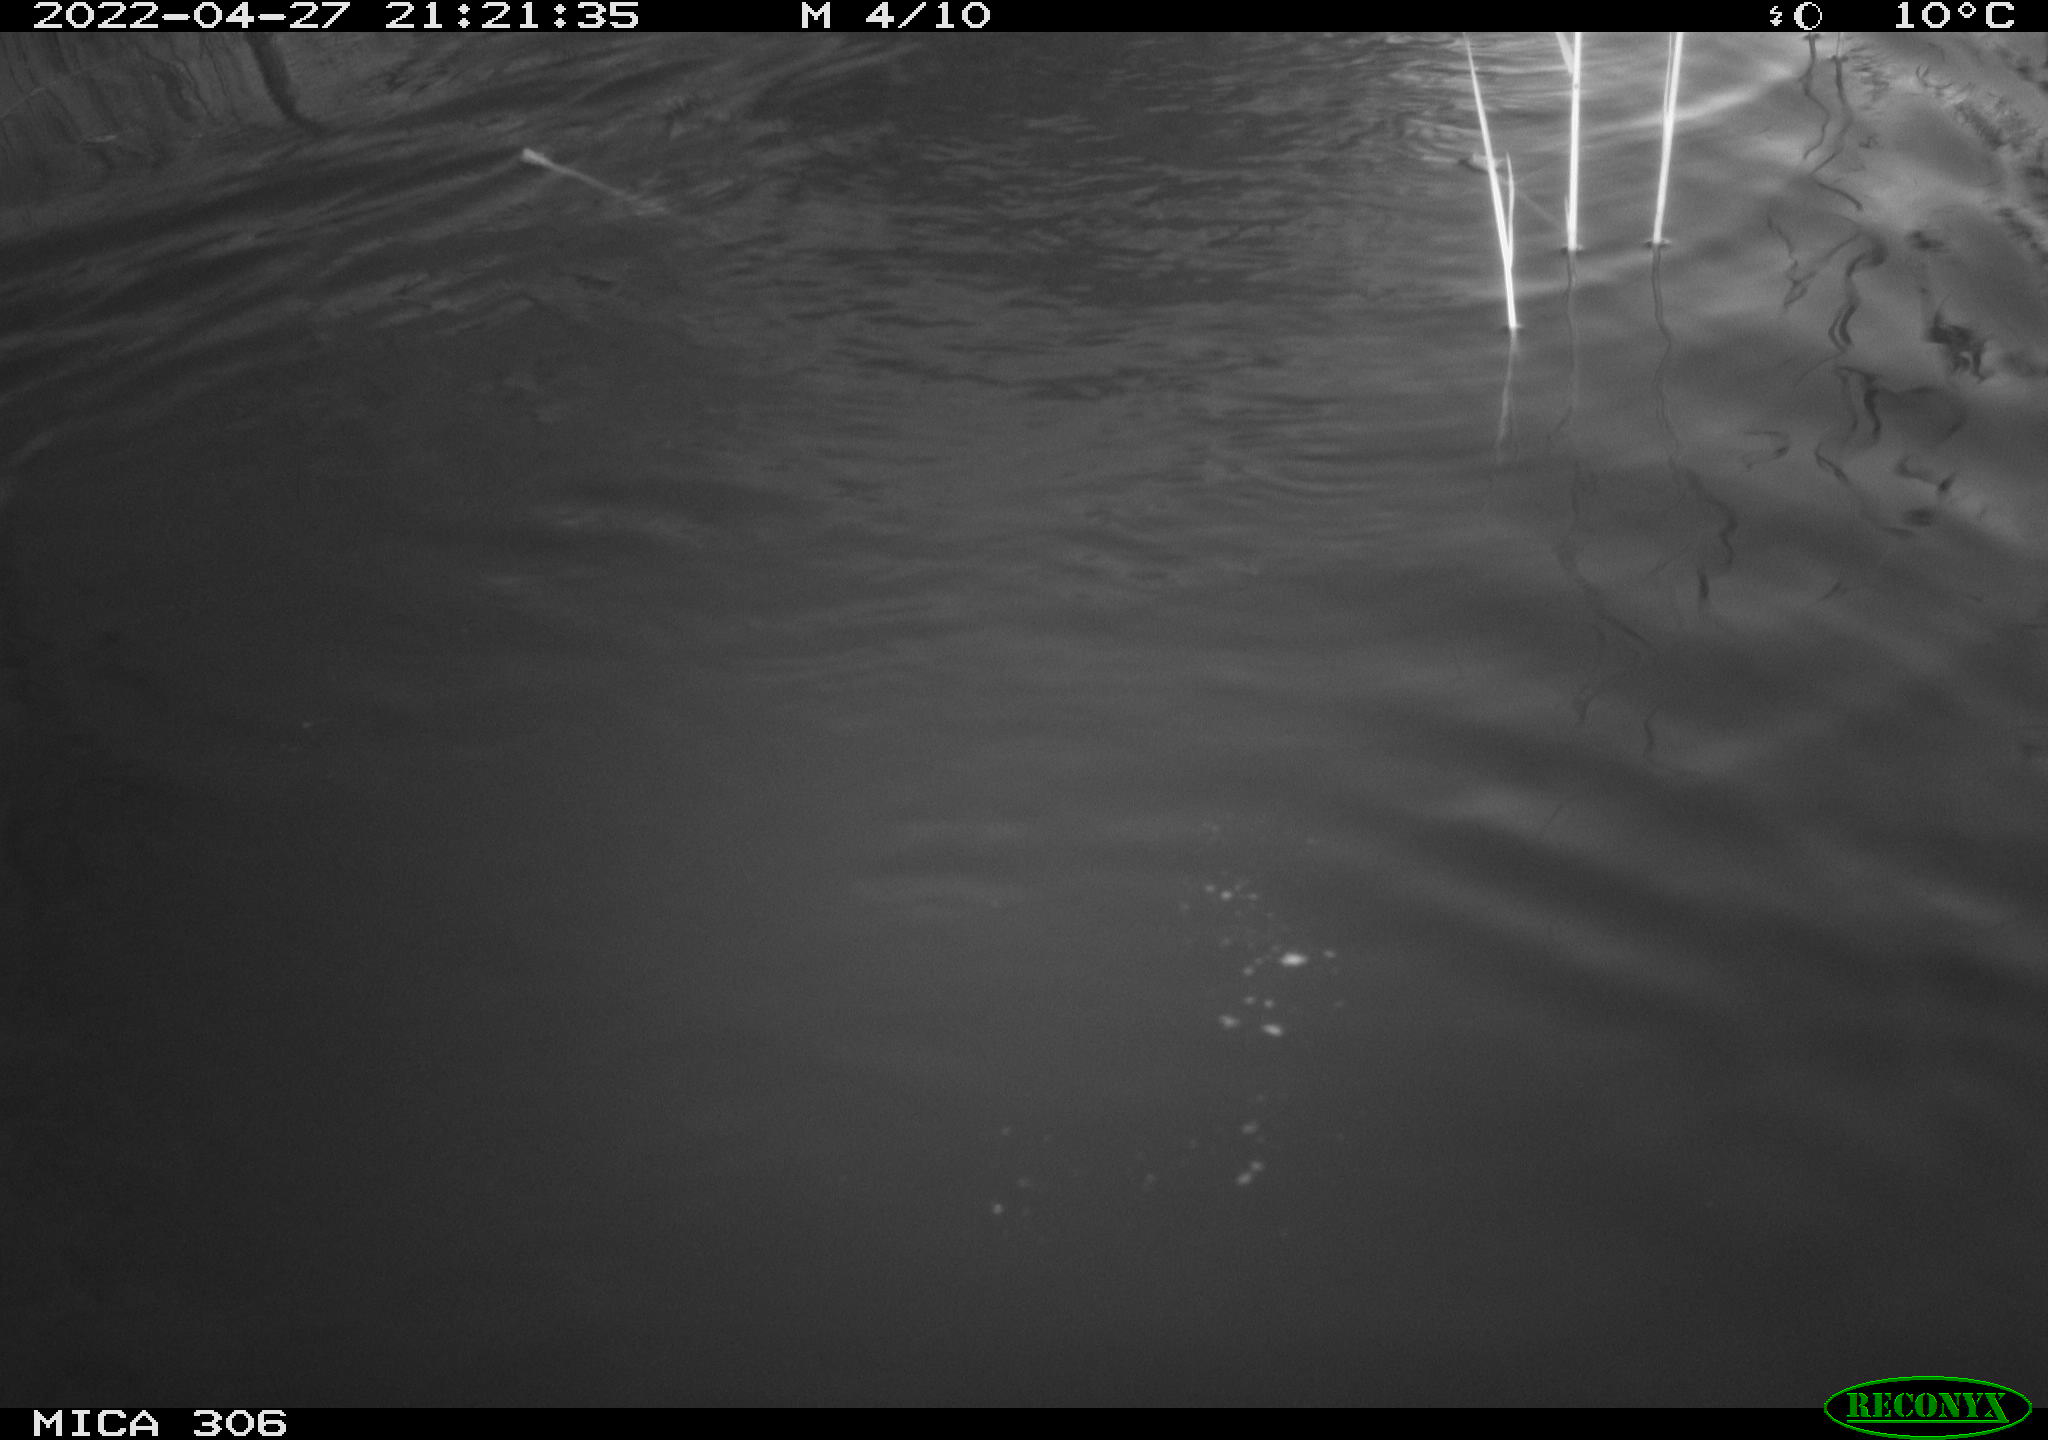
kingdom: Animalia
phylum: Chordata
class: Mammalia
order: Rodentia
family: Cricetidae
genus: Ondatra
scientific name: Ondatra zibethicus
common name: Muskrat
